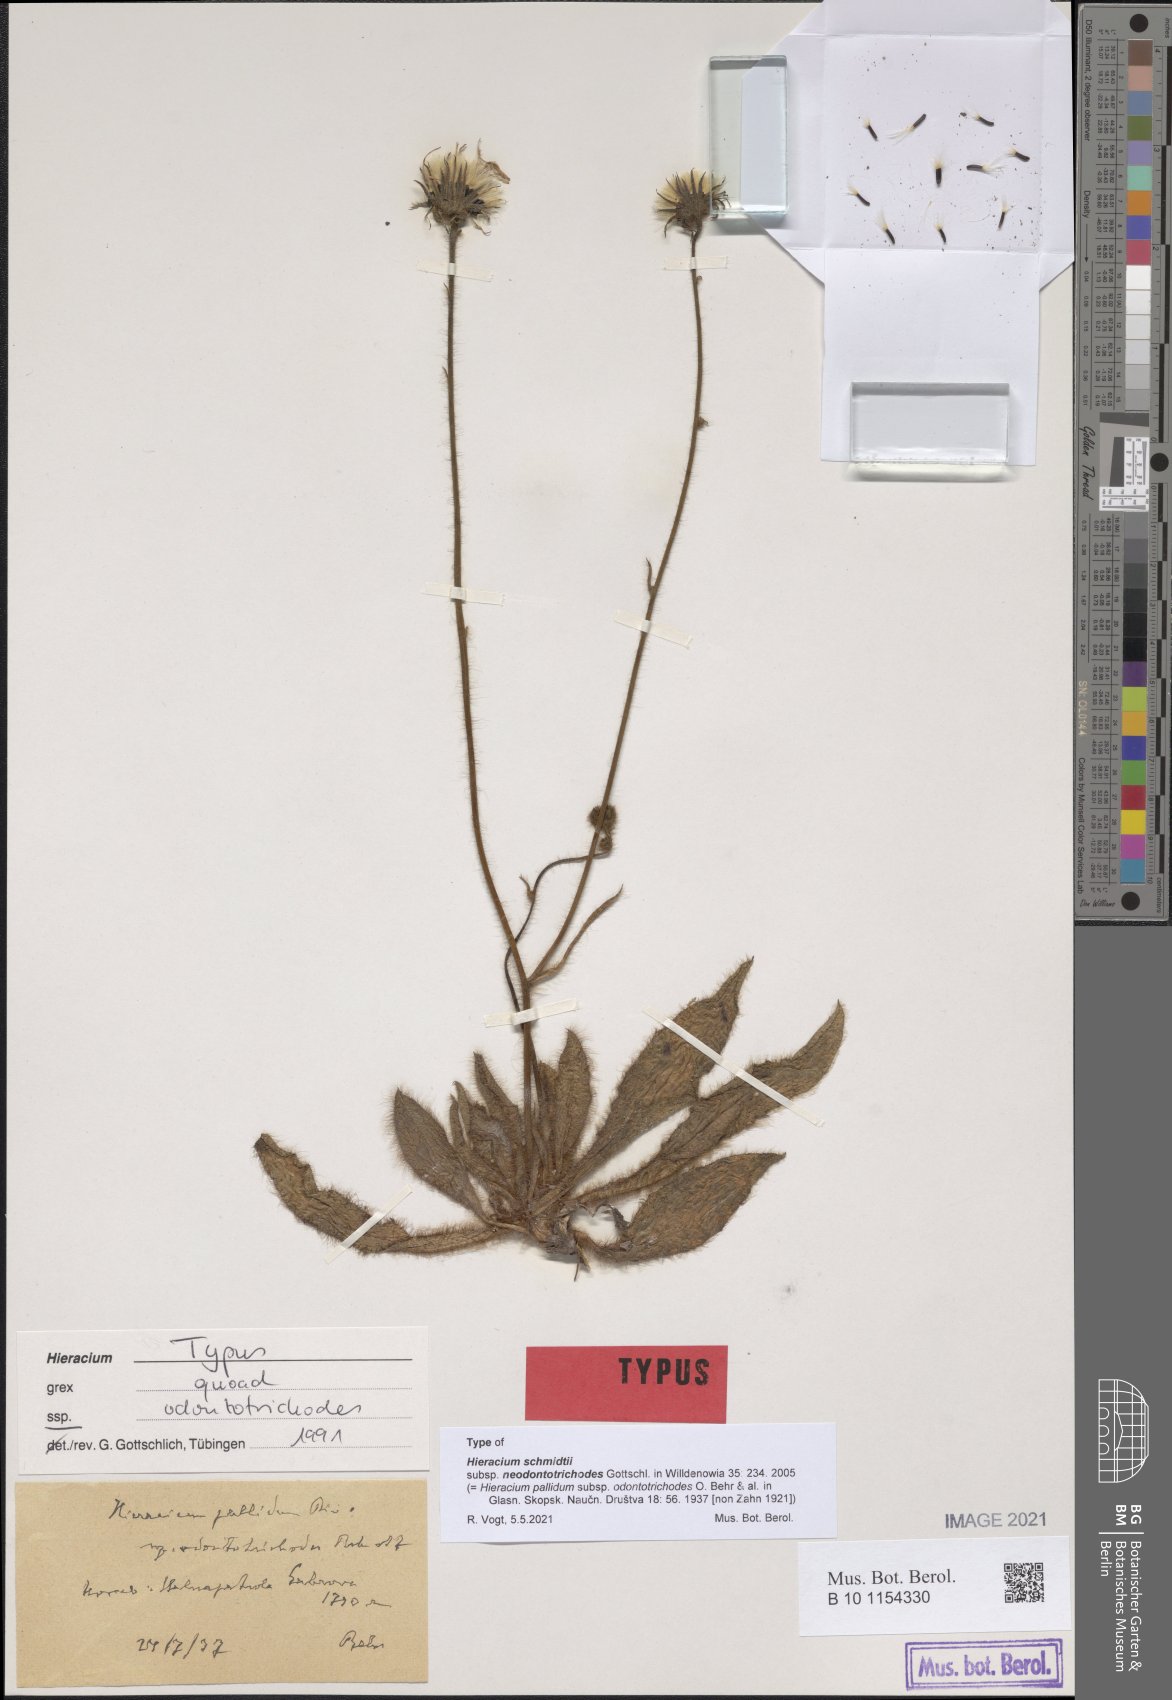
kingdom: Plantae
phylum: Tracheophyta
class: Magnoliopsida
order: Asterales
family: Asteraceae
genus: Hieracium
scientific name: Hieracium schmidtii
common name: Schmidt's hawkweed
